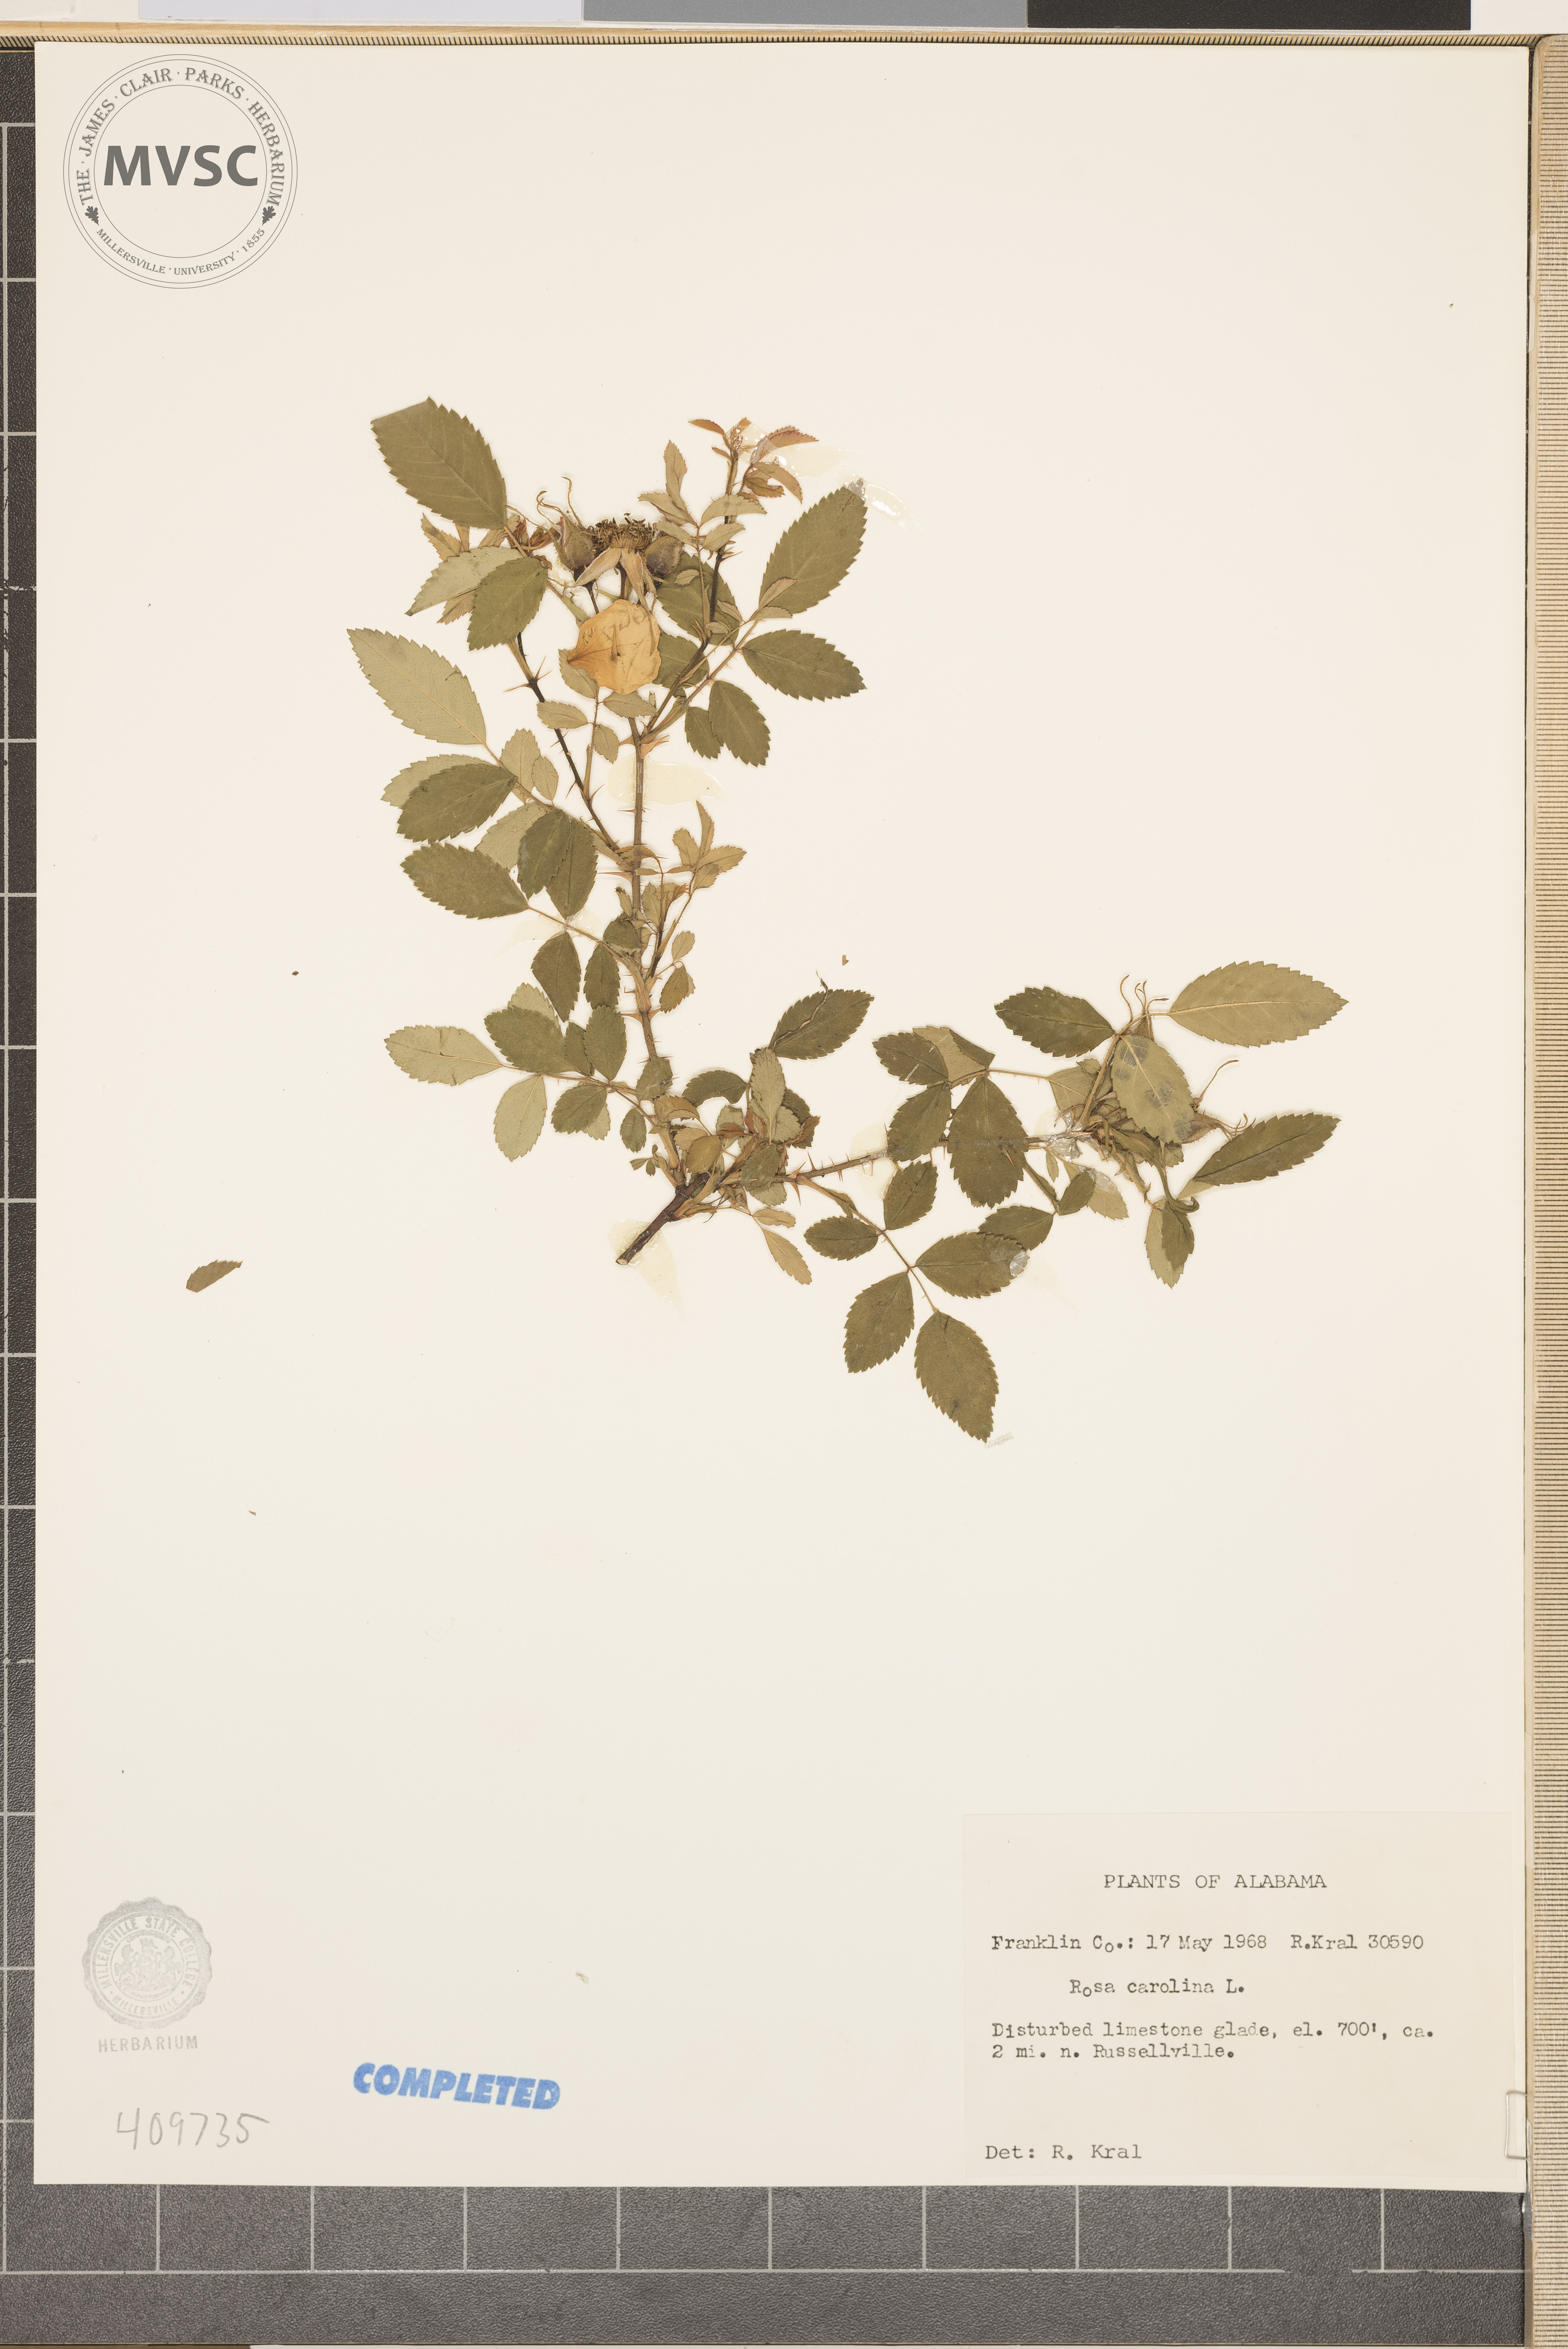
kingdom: Plantae
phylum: Tracheophyta
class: Magnoliopsida
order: Rosales
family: Rosaceae
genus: Rosa
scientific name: Rosa carolina
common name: Pasture rose
